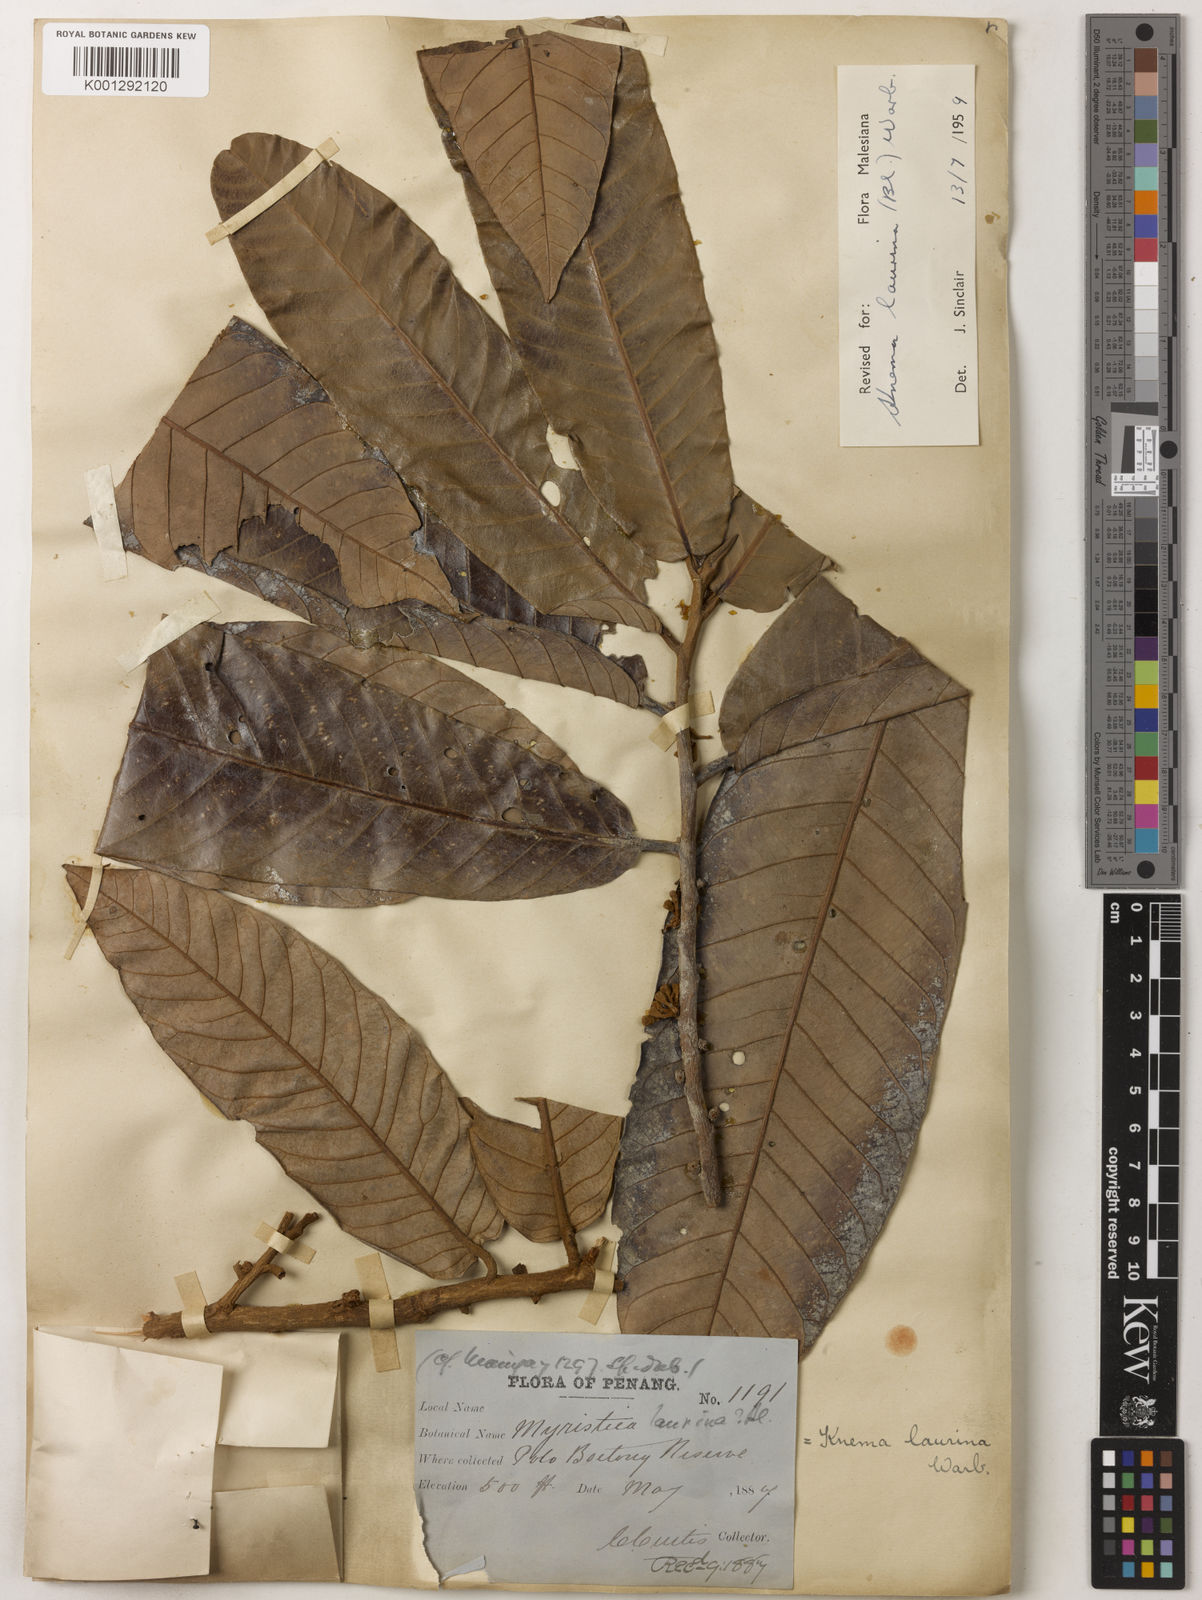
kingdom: Plantae
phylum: Tracheophyta
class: Magnoliopsida
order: Magnoliales
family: Myristicaceae
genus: Knema
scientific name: Knema laurina
